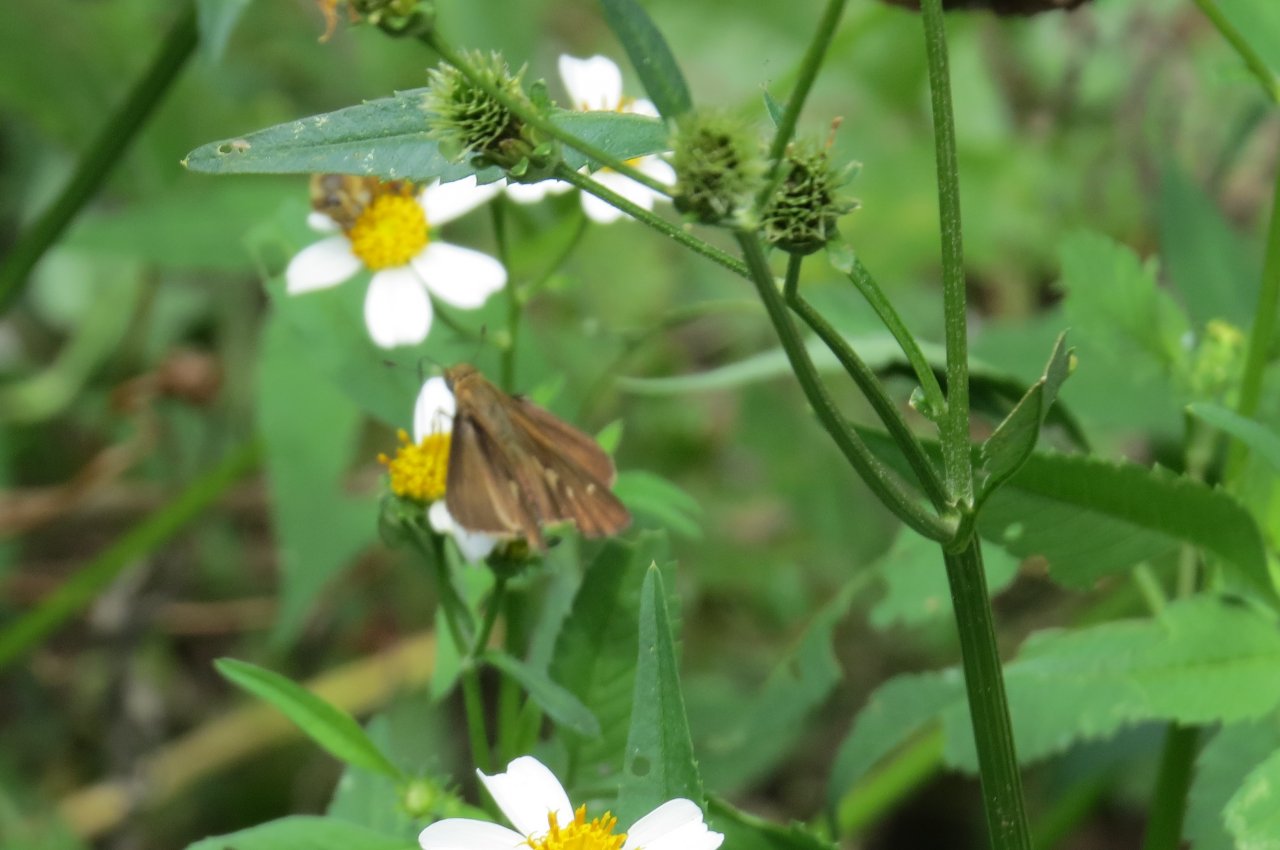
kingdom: Animalia
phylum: Arthropoda
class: Insecta
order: Lepidoptera
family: Hesperiidae
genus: Panoquina
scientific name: Panoquina ocola
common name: Ocola Skipper
